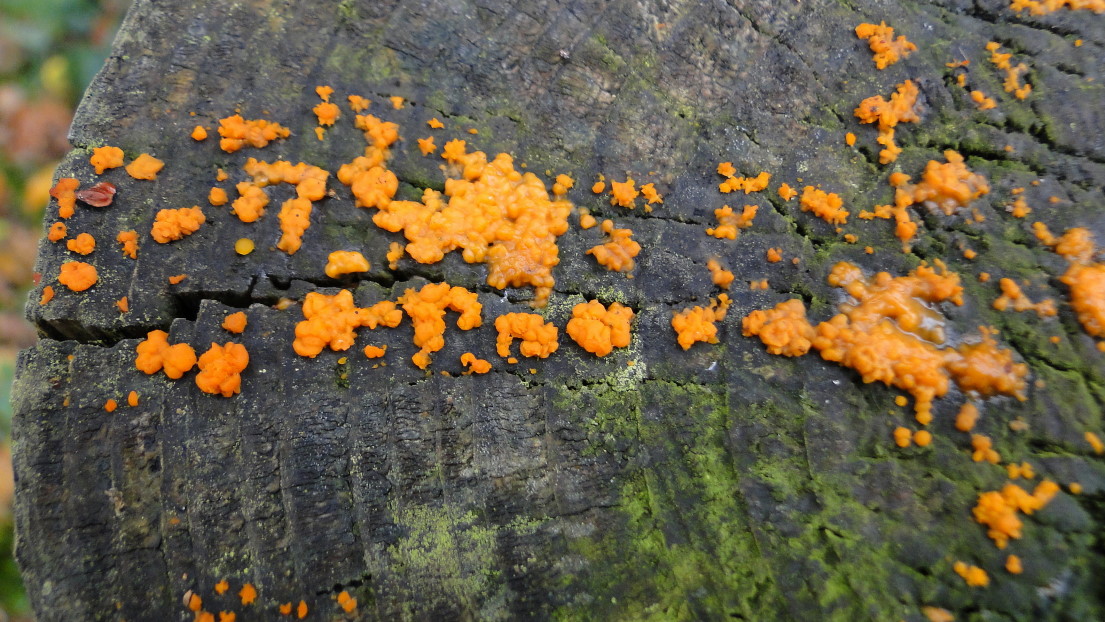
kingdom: Fungi
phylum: Basidiomycota
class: Dacrymycetes
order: Dacrymycetales
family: Dacrymycetaceae
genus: Dacrymyces
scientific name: Dacrymyces stillatus
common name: almindelig tåresvamp
